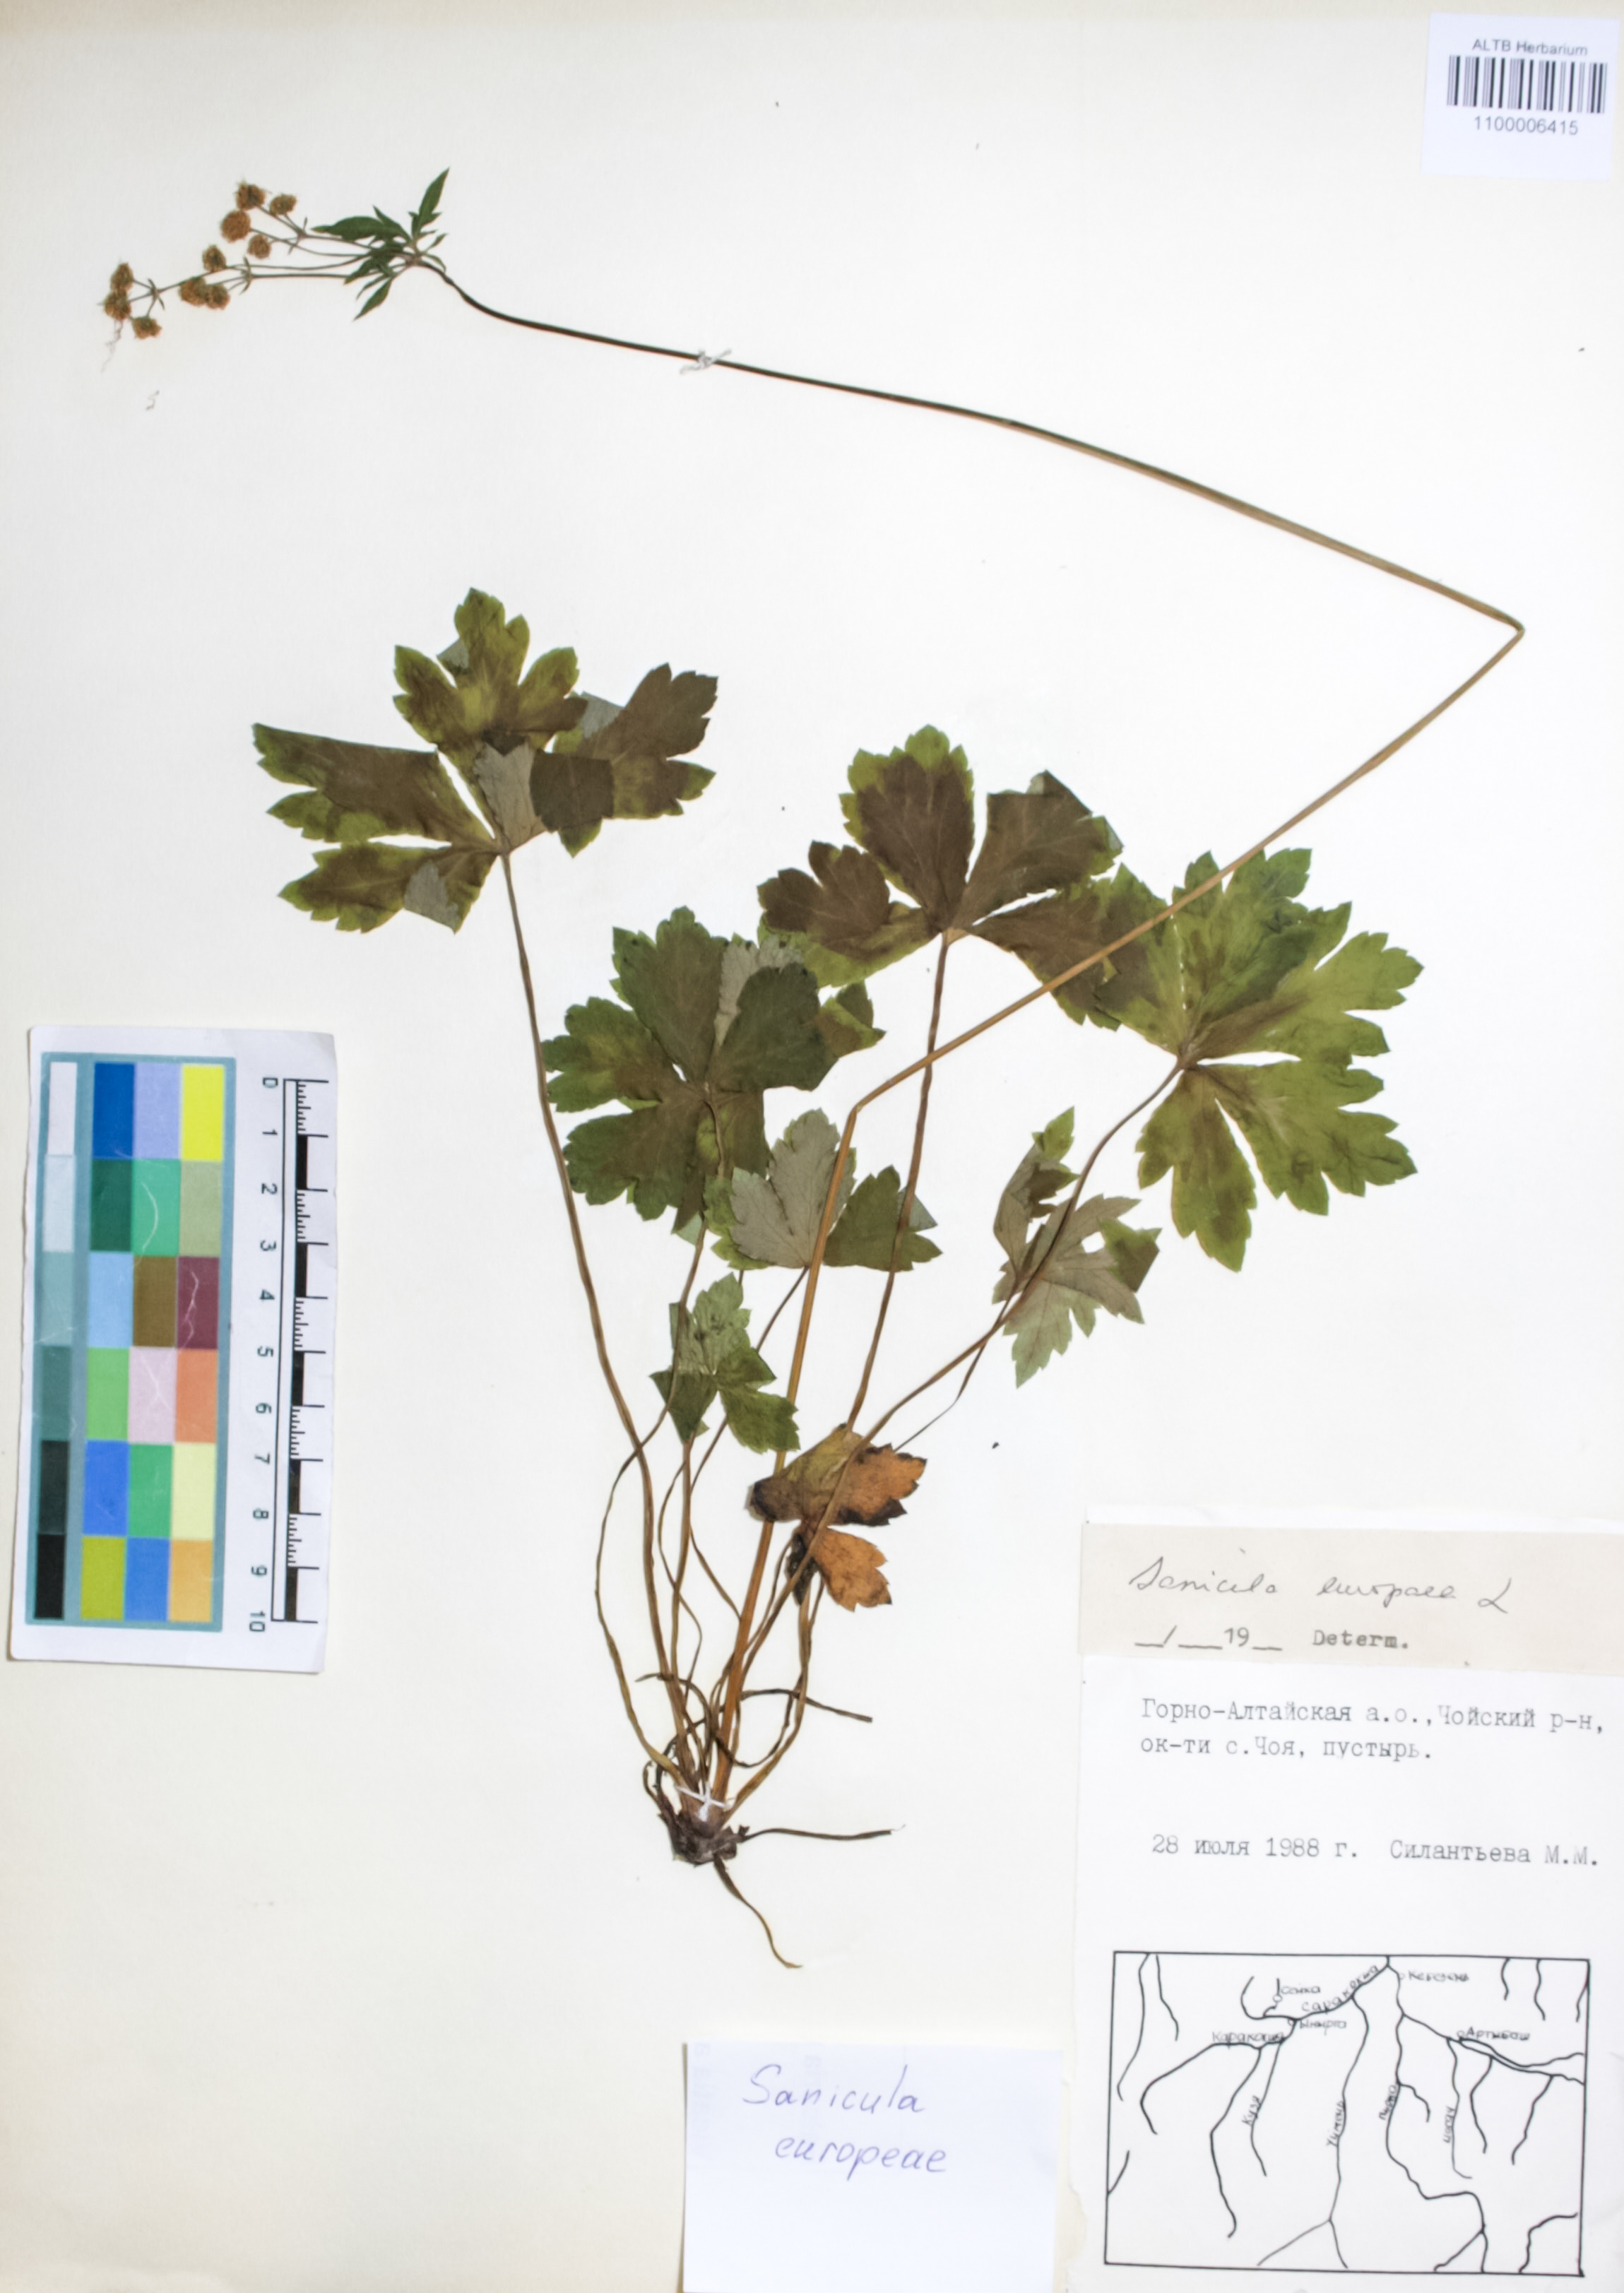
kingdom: Plantae
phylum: Tracheophyta
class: Magnoliopsida
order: Apiales
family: Apiaceae
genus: Sanicula
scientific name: Sanicula europaea
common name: Sanicle
